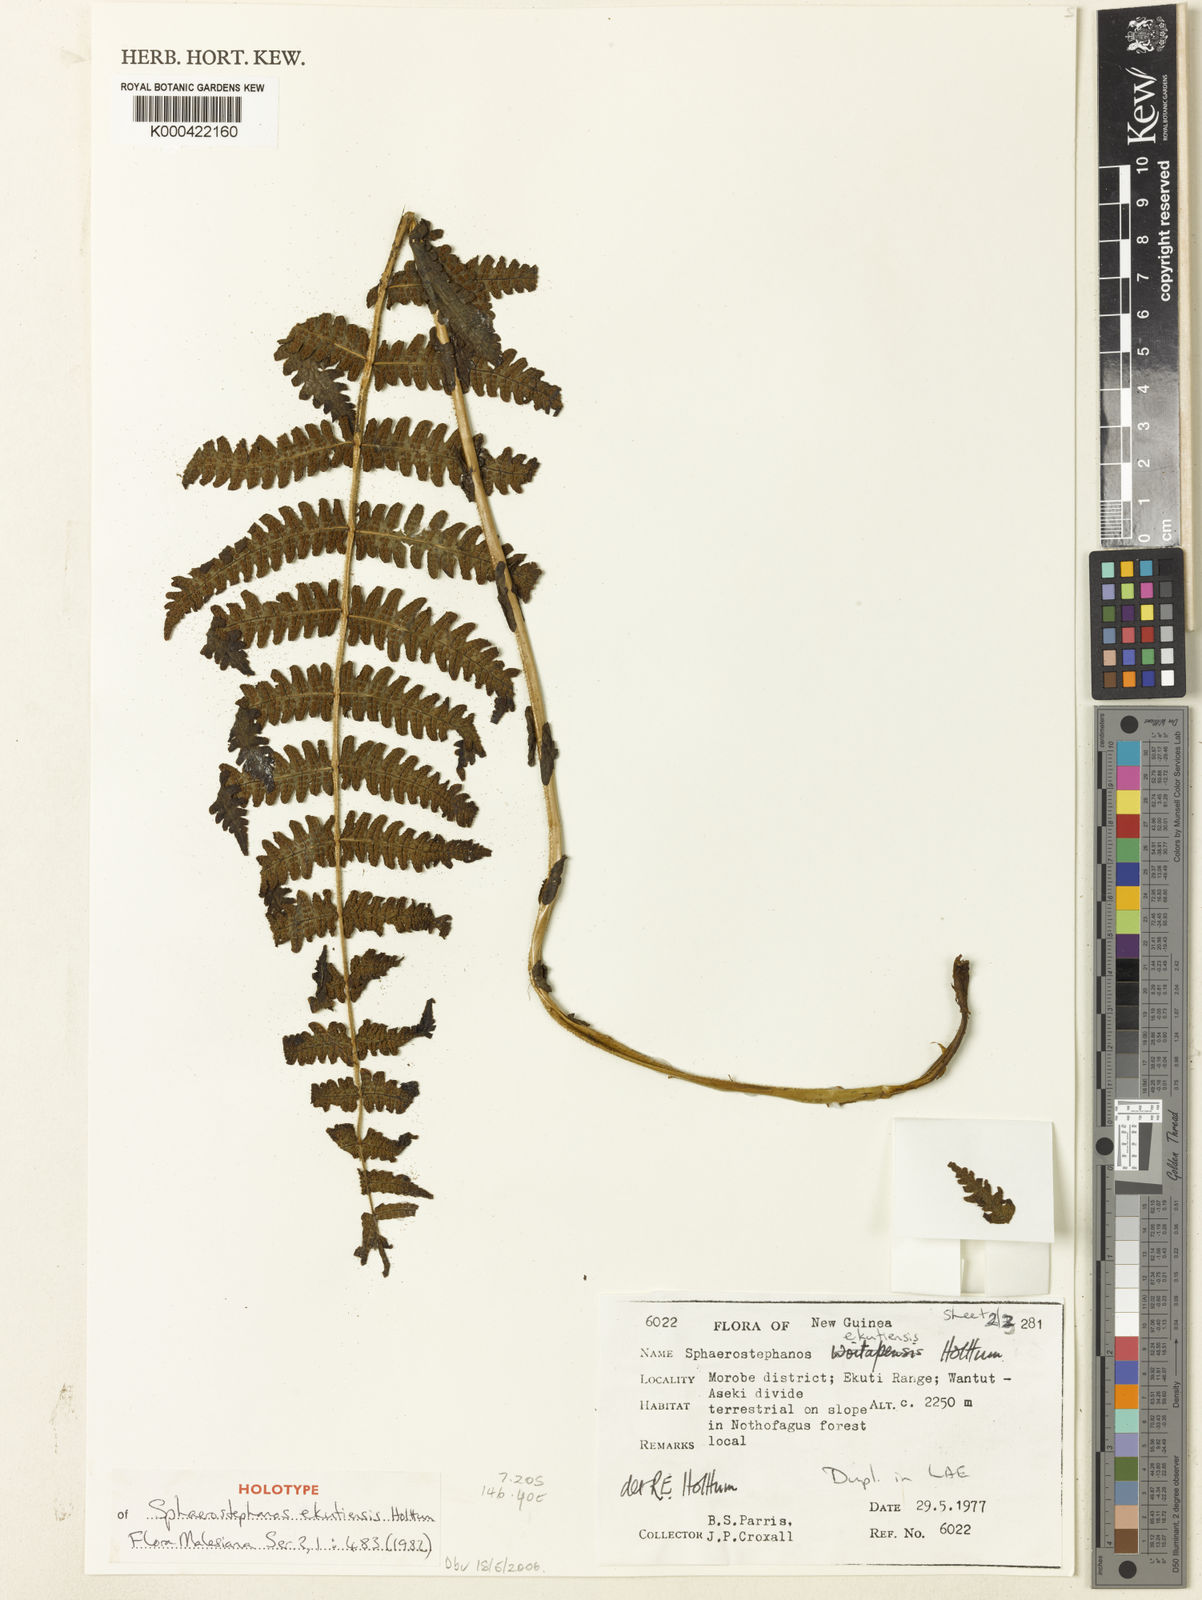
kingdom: Plantae
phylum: Tracheophyta
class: Polypodiopsida
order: Polypodiales
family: Thelypteridaceae
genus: Sphaerostephanos
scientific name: Sphaerostephanos ekutiensis
